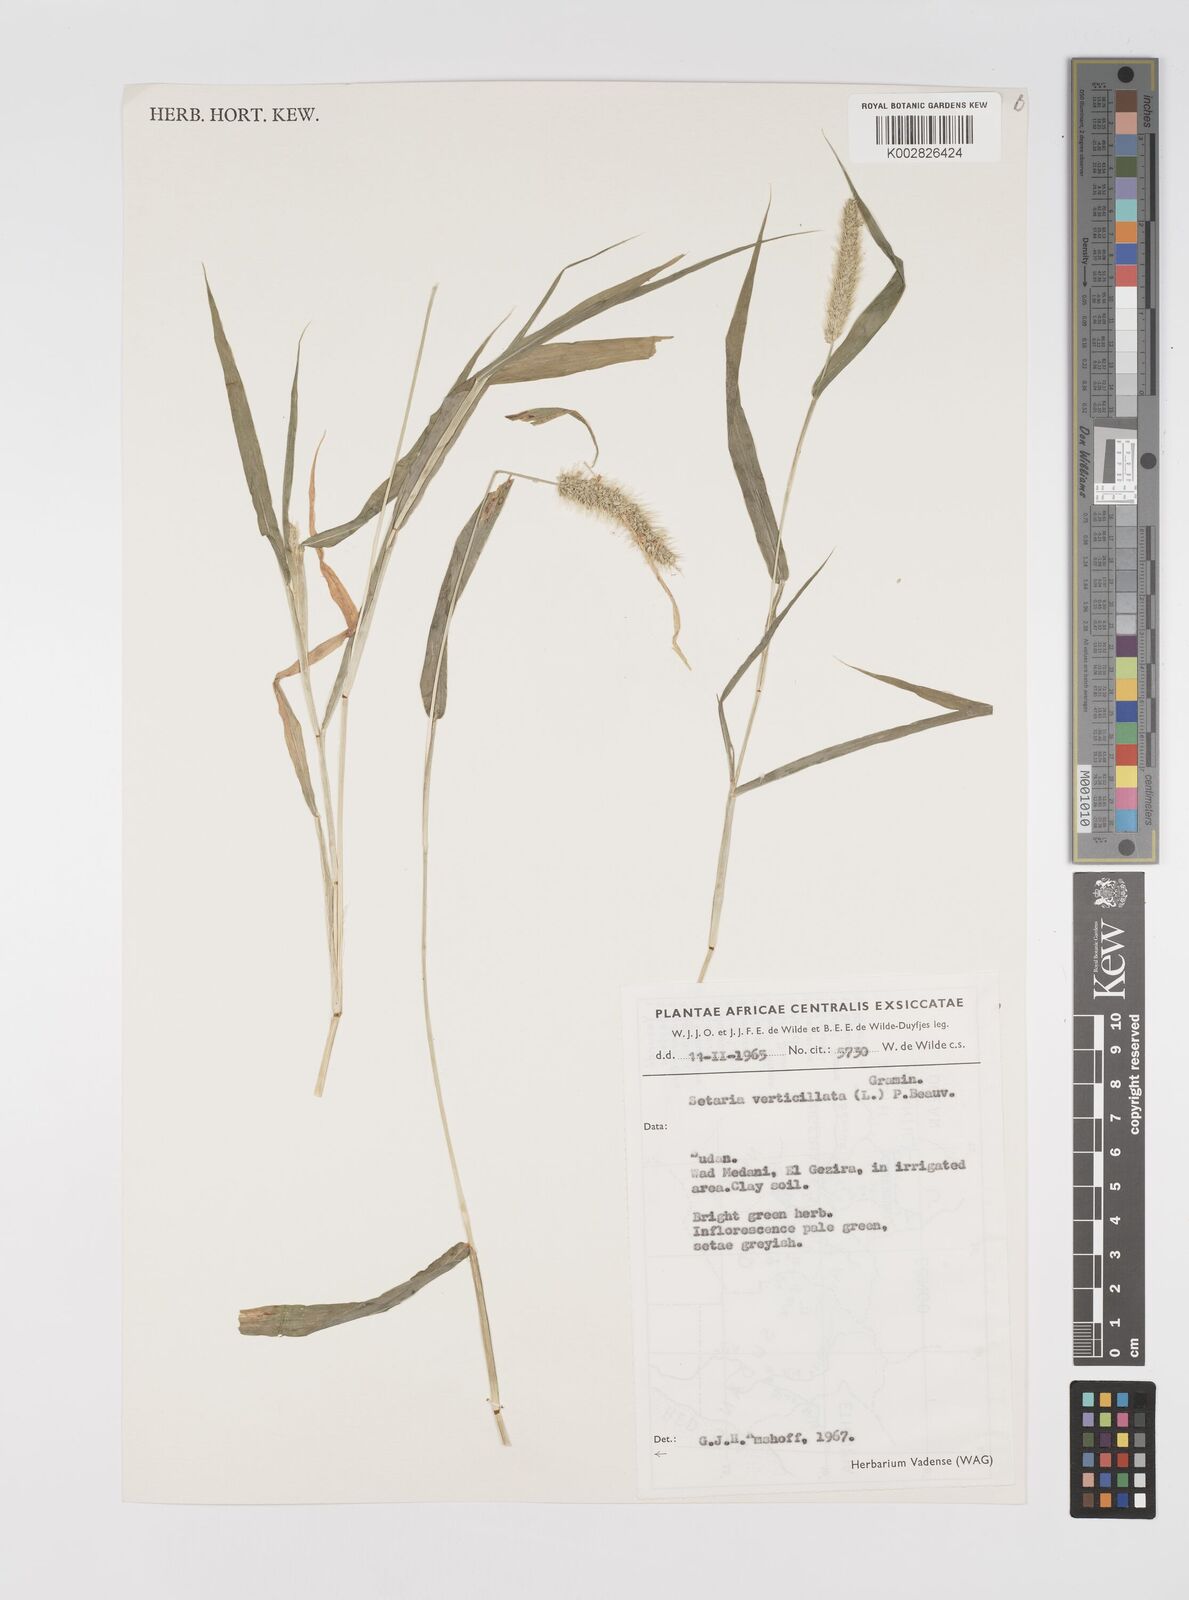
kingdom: Plantae
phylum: Tracheophyta
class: Liliopsida
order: Poales
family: Poaceae
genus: Setaria
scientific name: Setaria verticillata
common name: Hooked bristlegrass
